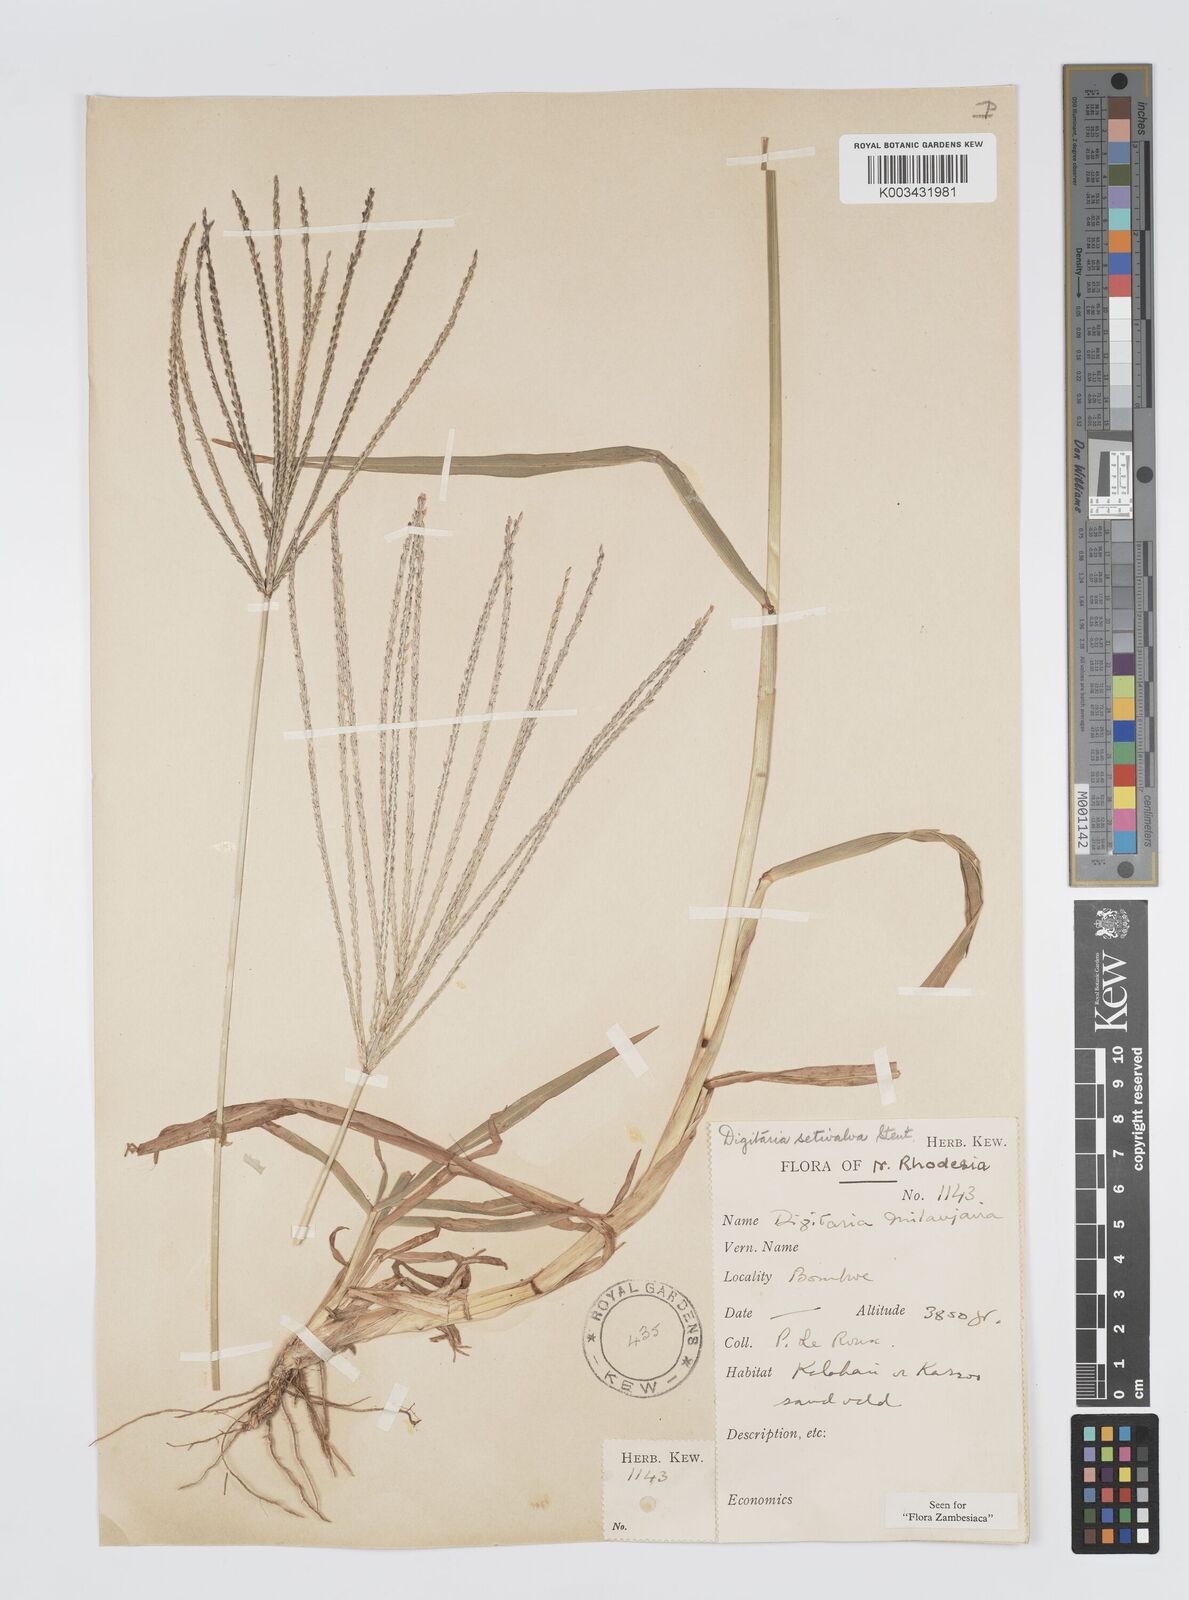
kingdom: Plantae
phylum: Tracheophyta
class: Liliopsida
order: Poales
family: Poaceae
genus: Digitaria
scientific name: Digitaria milanjiana
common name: Madagascar crabgrass
